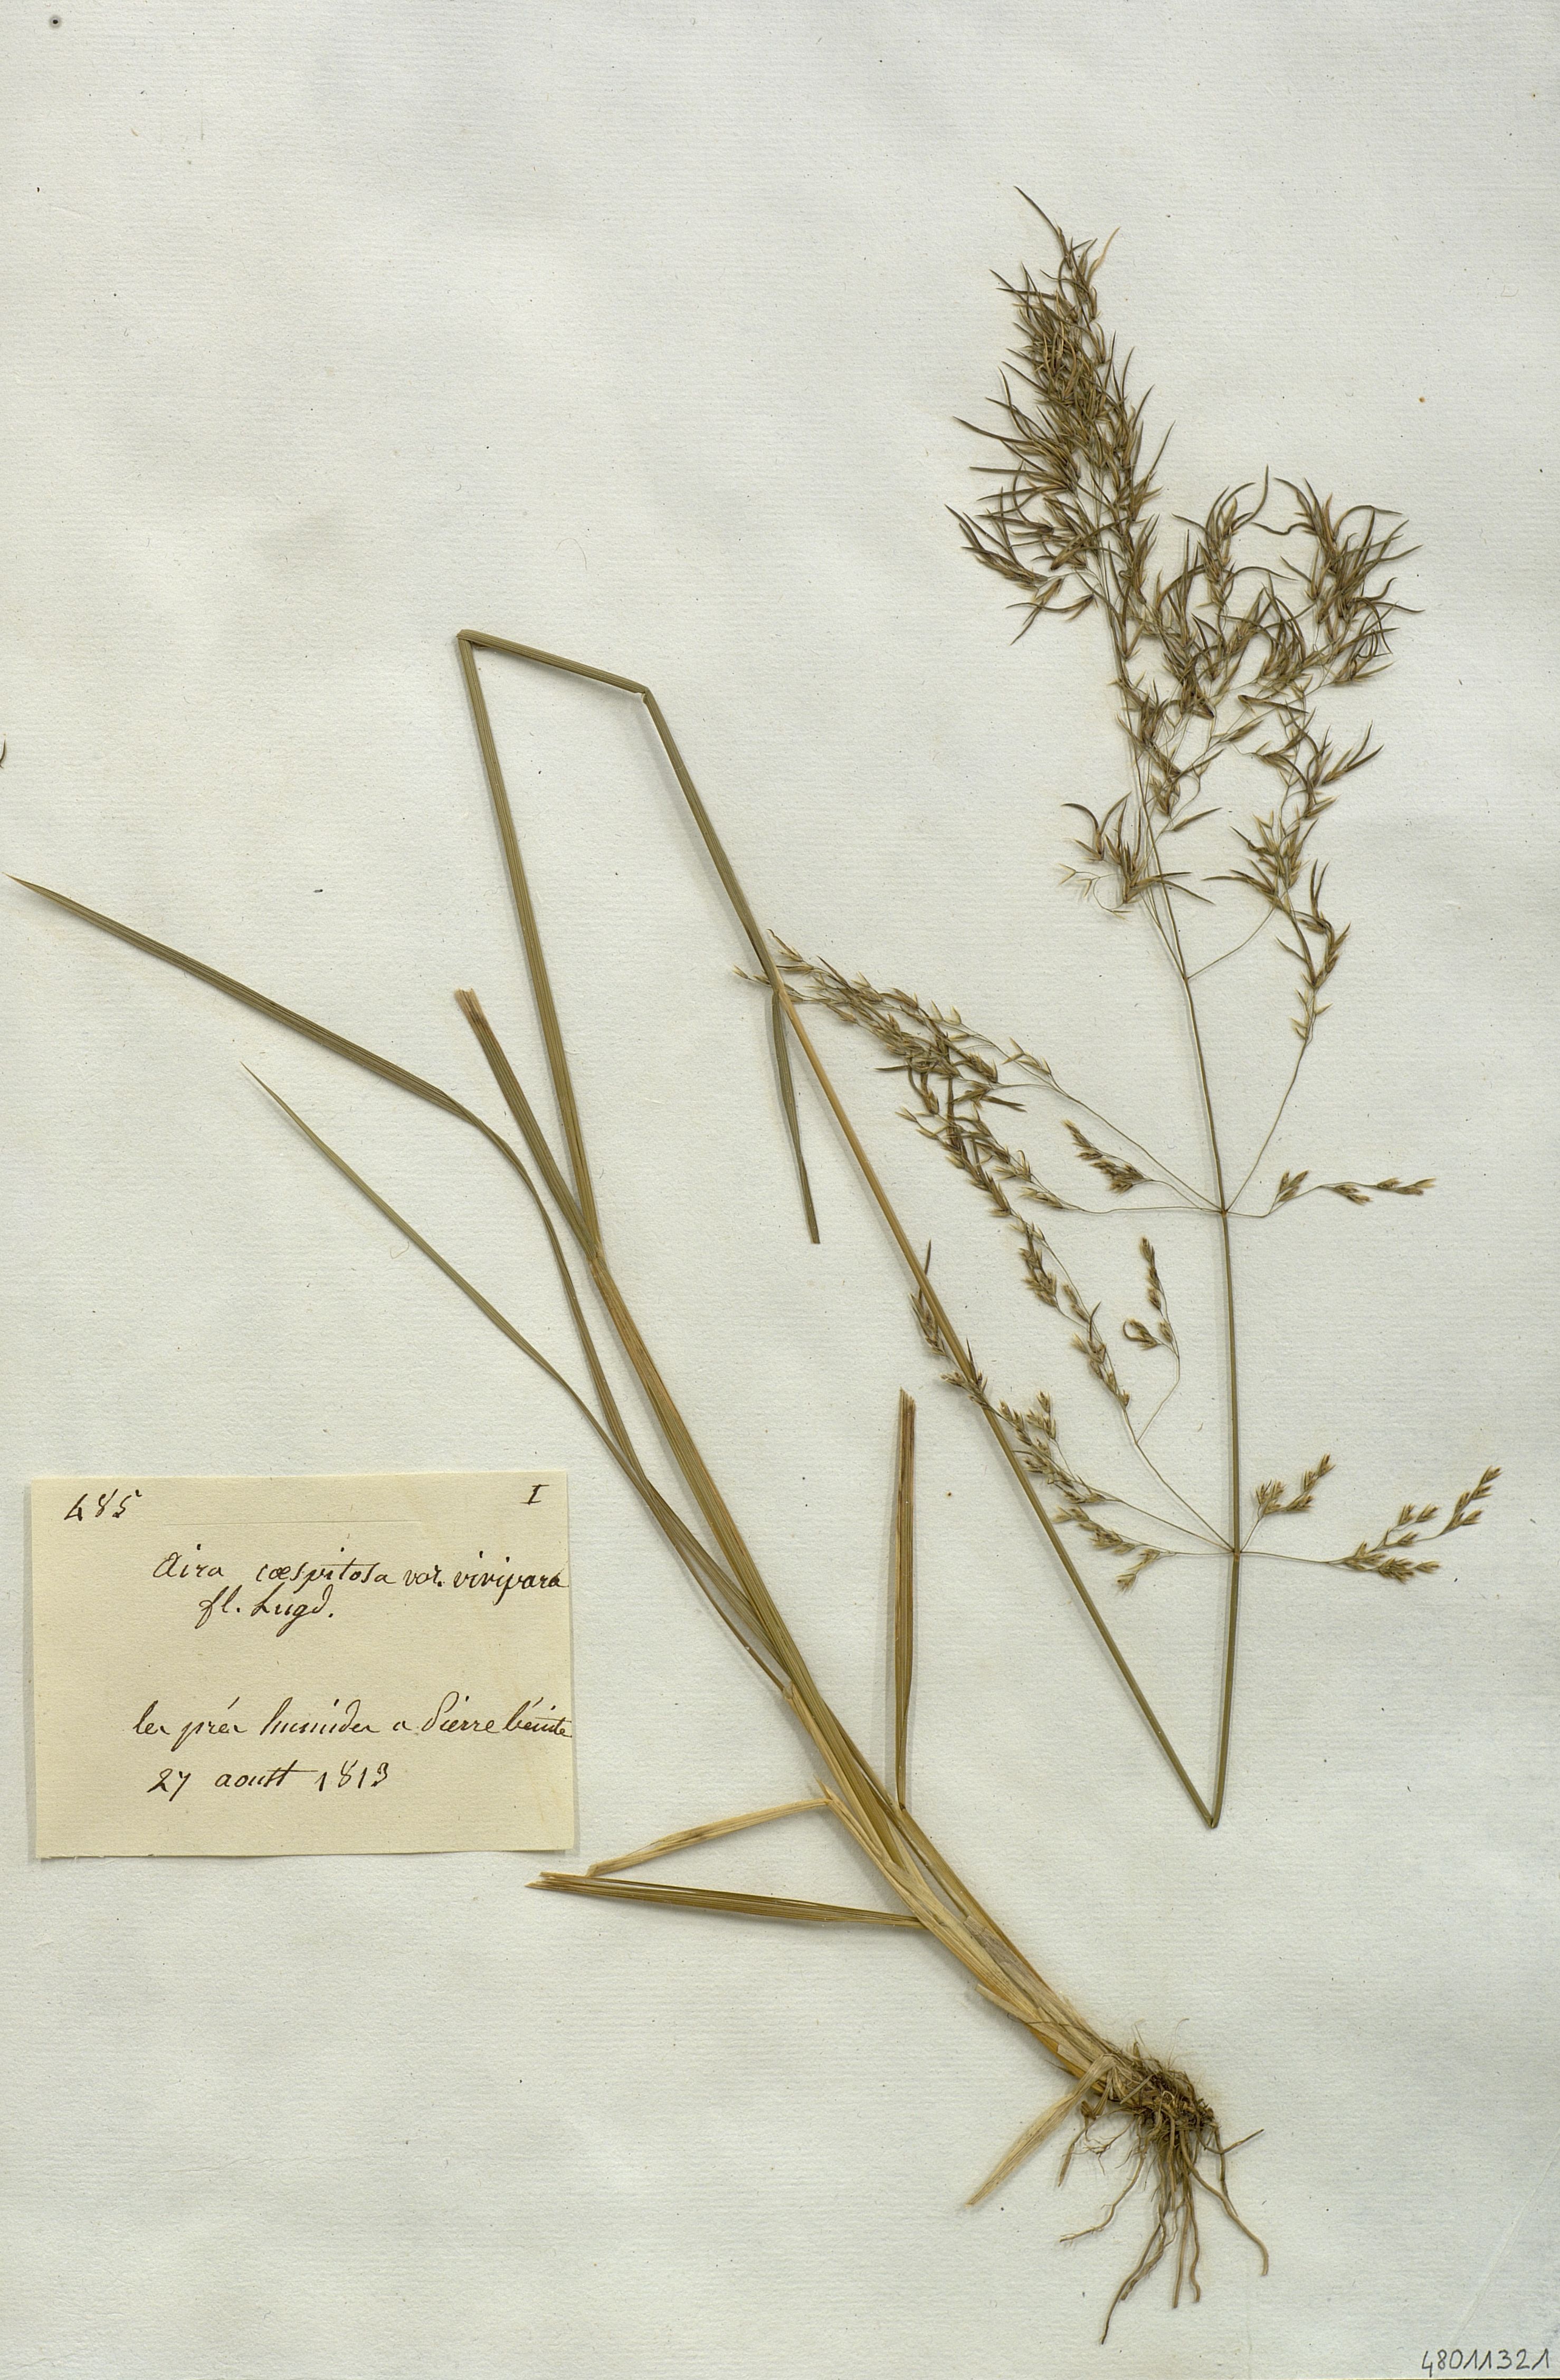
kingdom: Plantae
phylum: Tracheophyta
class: Liliopsida
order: Poales
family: Poaceae
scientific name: Poaceae
